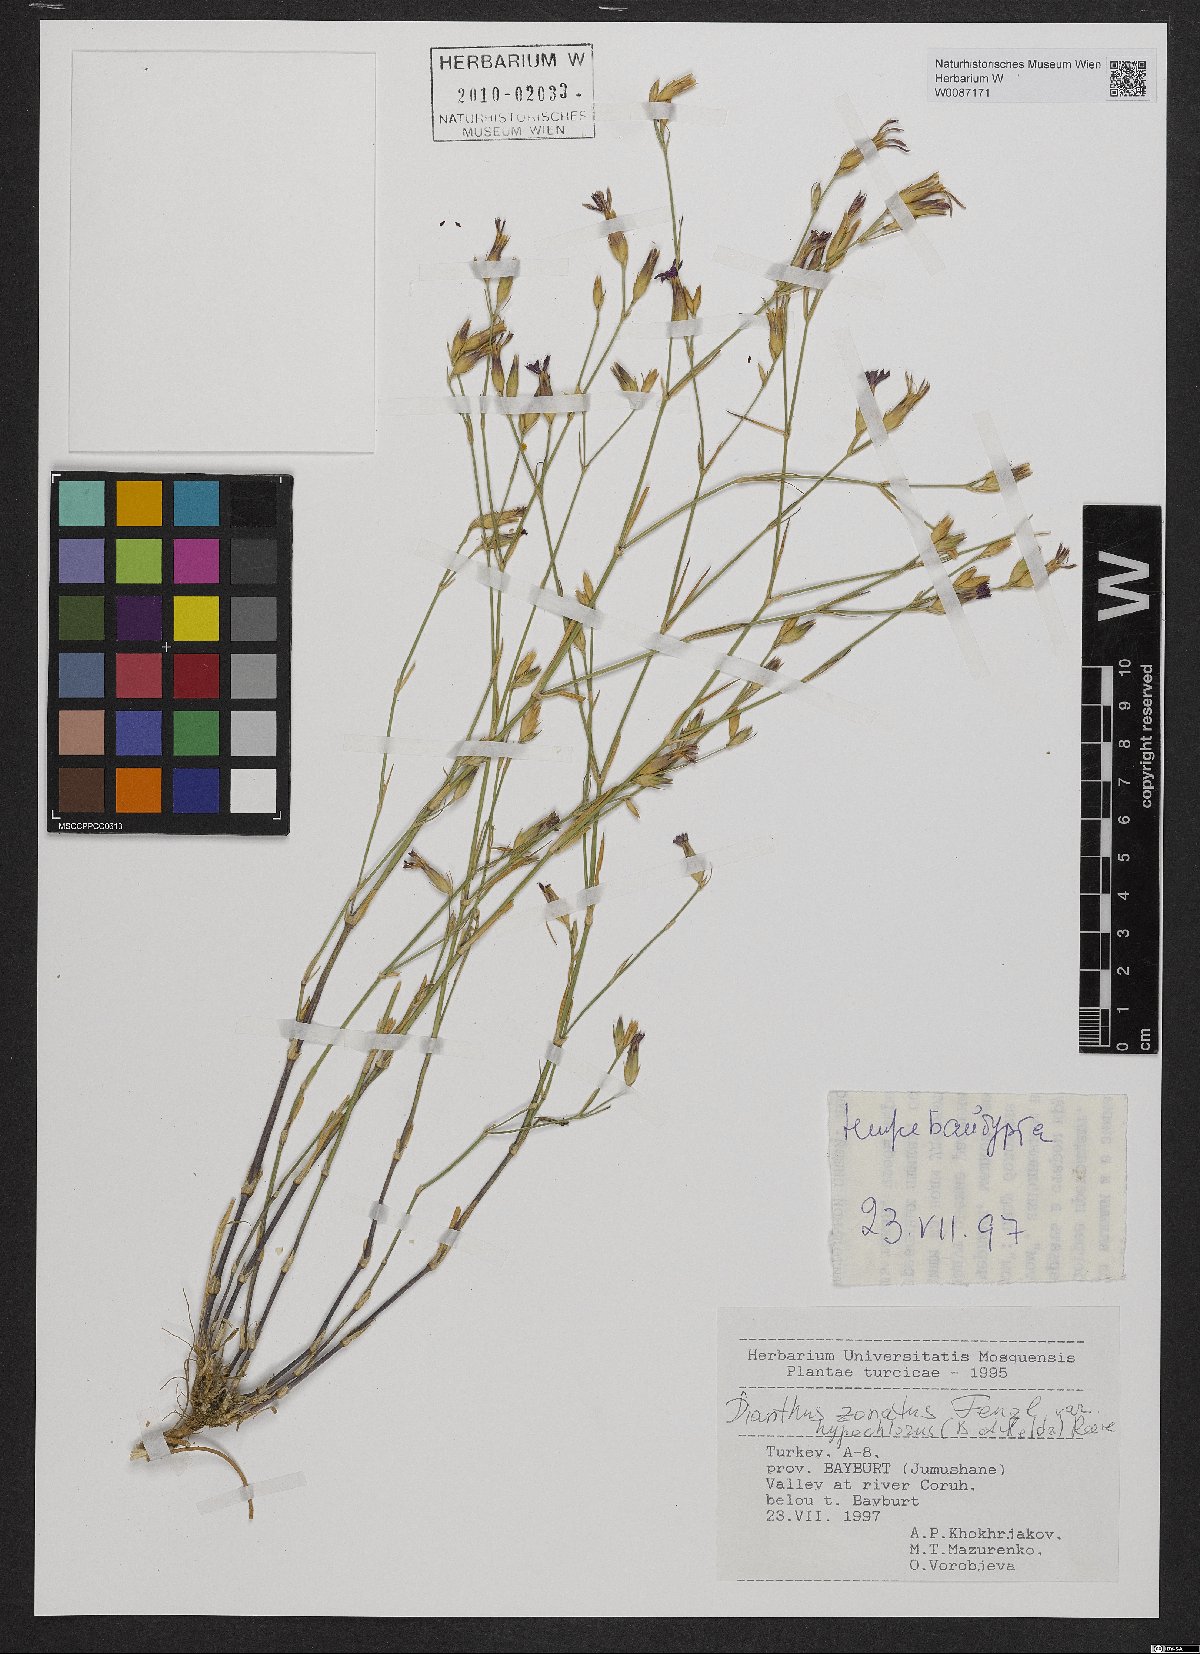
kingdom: Plantae
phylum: Tracheophyta
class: Magnoliopsida
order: Caryophyllales
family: Caryophyllaceae
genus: Dianthus
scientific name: Dianthus zonatus
